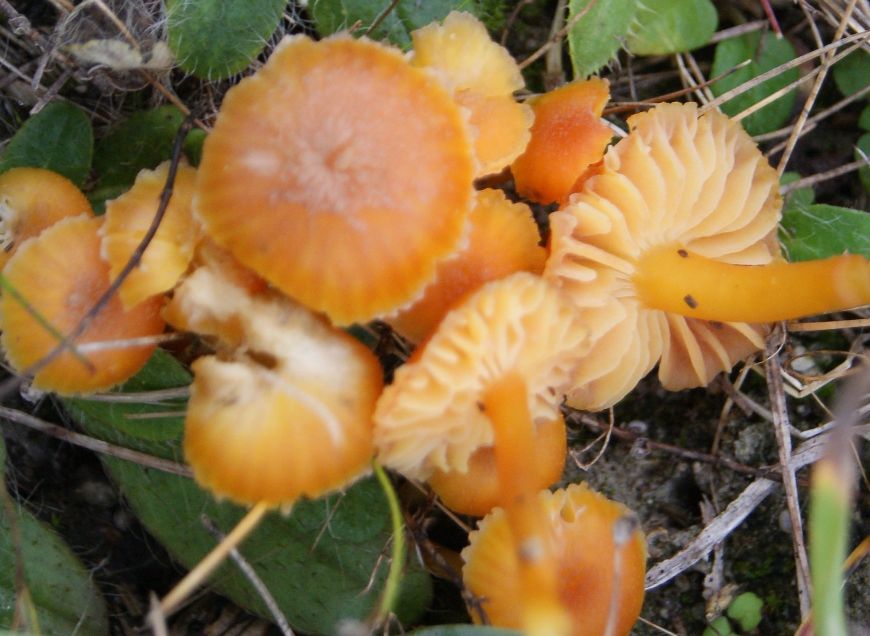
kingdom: Fungi
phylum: Basidiomycota
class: Agaricomycetes
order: Agaricales
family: Hygrophoraceae
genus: Hygrocybe
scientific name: Hygrocybe
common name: vokshat
